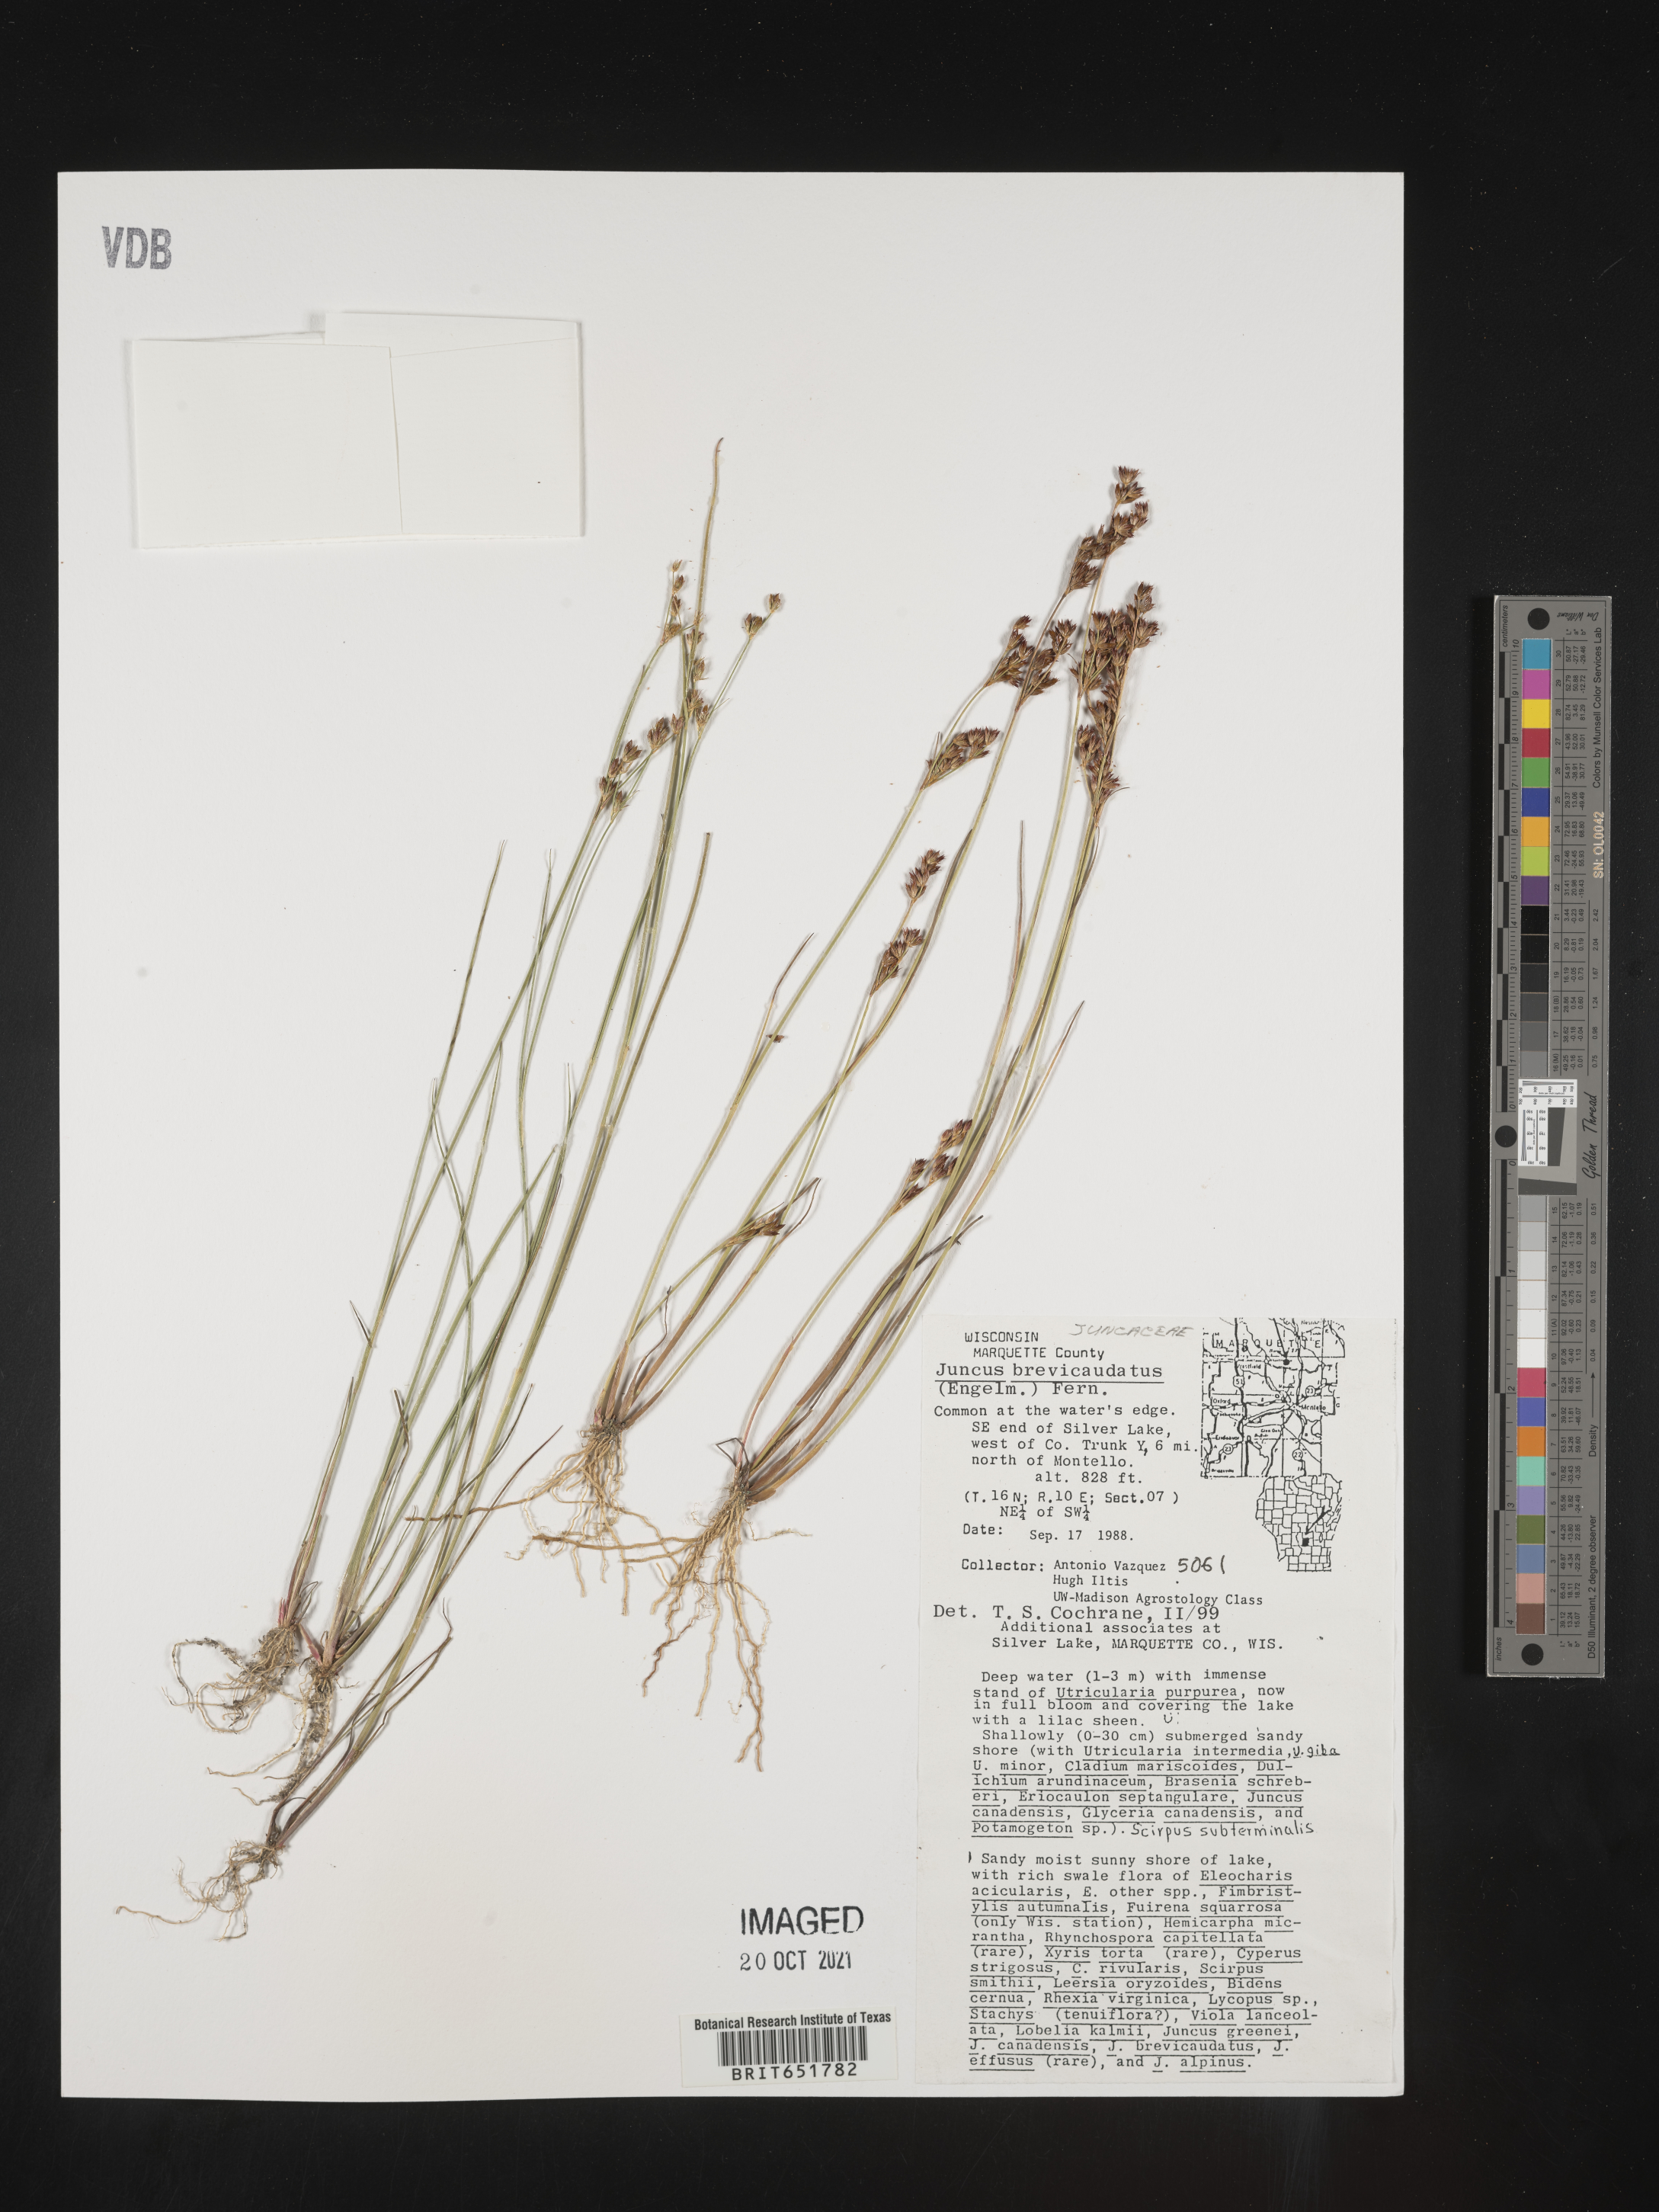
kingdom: Plantae
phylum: Tracheophyta
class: Liliopsida
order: Poales
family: Juncaceae
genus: Juncus
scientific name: Juncus brevicaudatus
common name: Narrow-panicle rush
